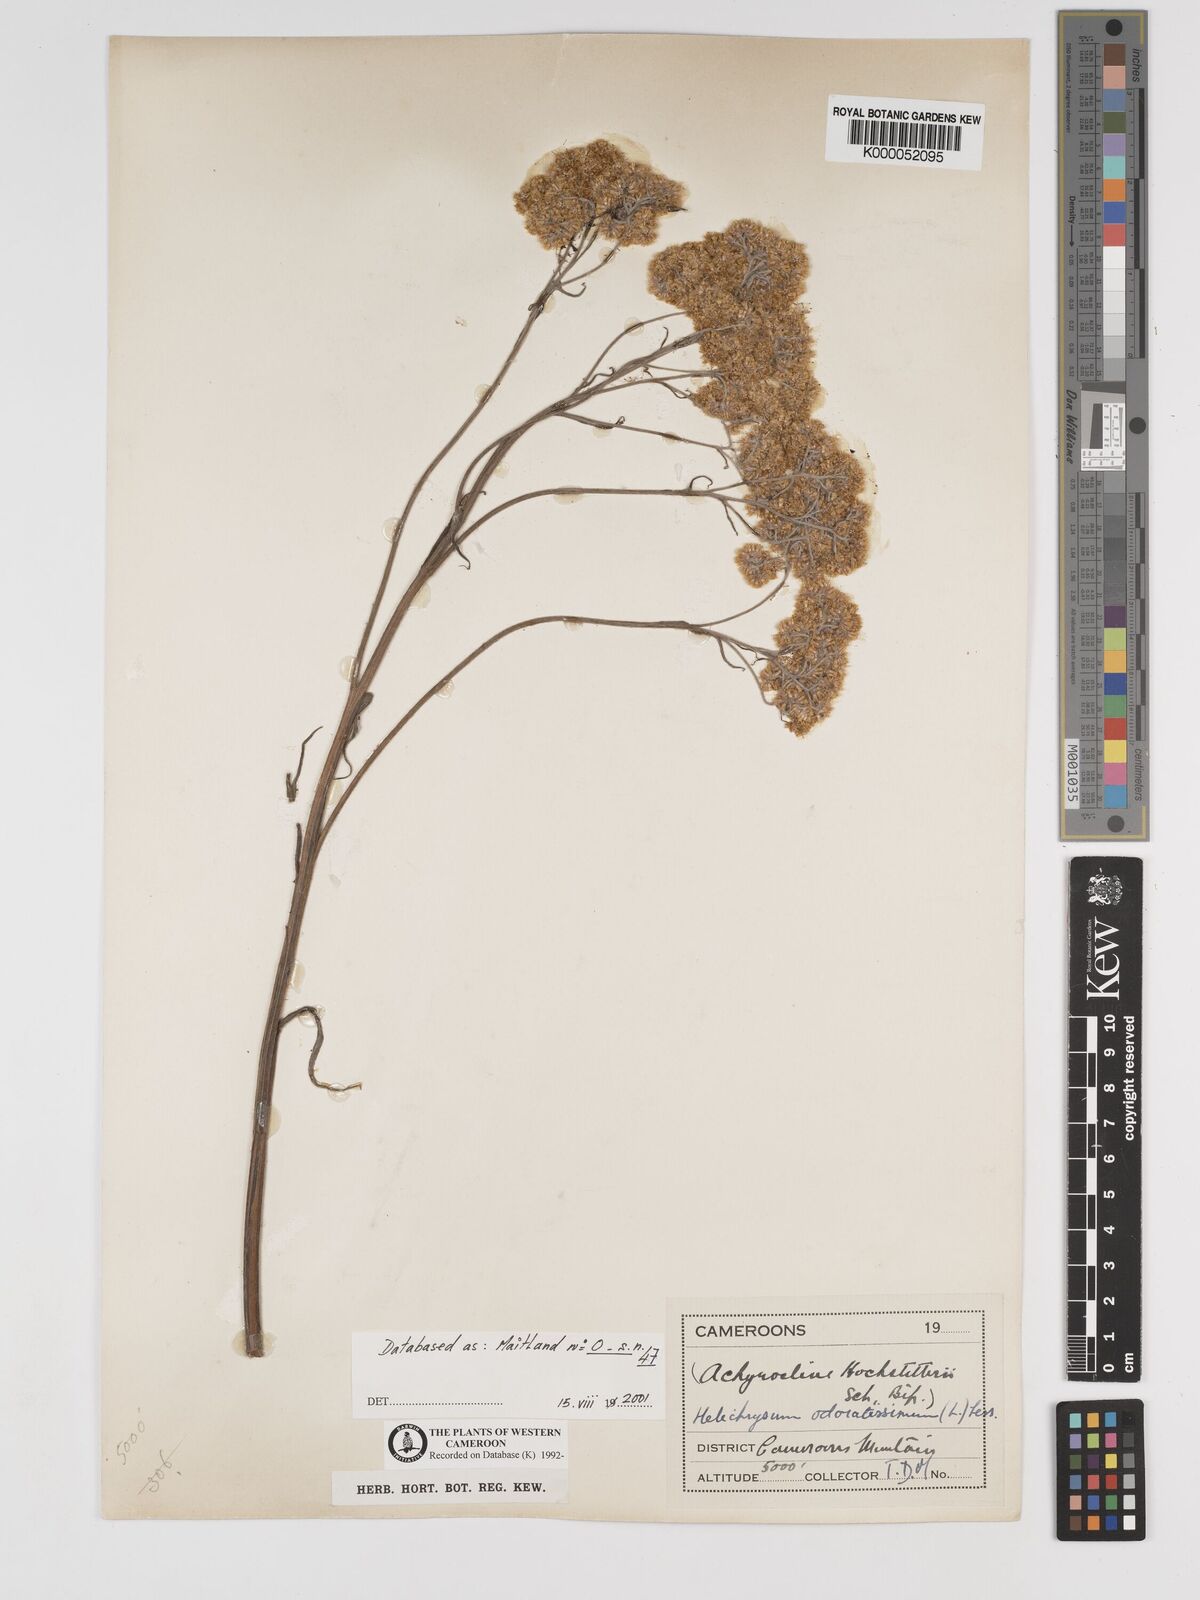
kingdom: Plantae
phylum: Tracheophyta
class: Magnoliopsida
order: Asterales
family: Asteraceae
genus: Helichrysum
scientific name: Helichrysum odoratissimum
